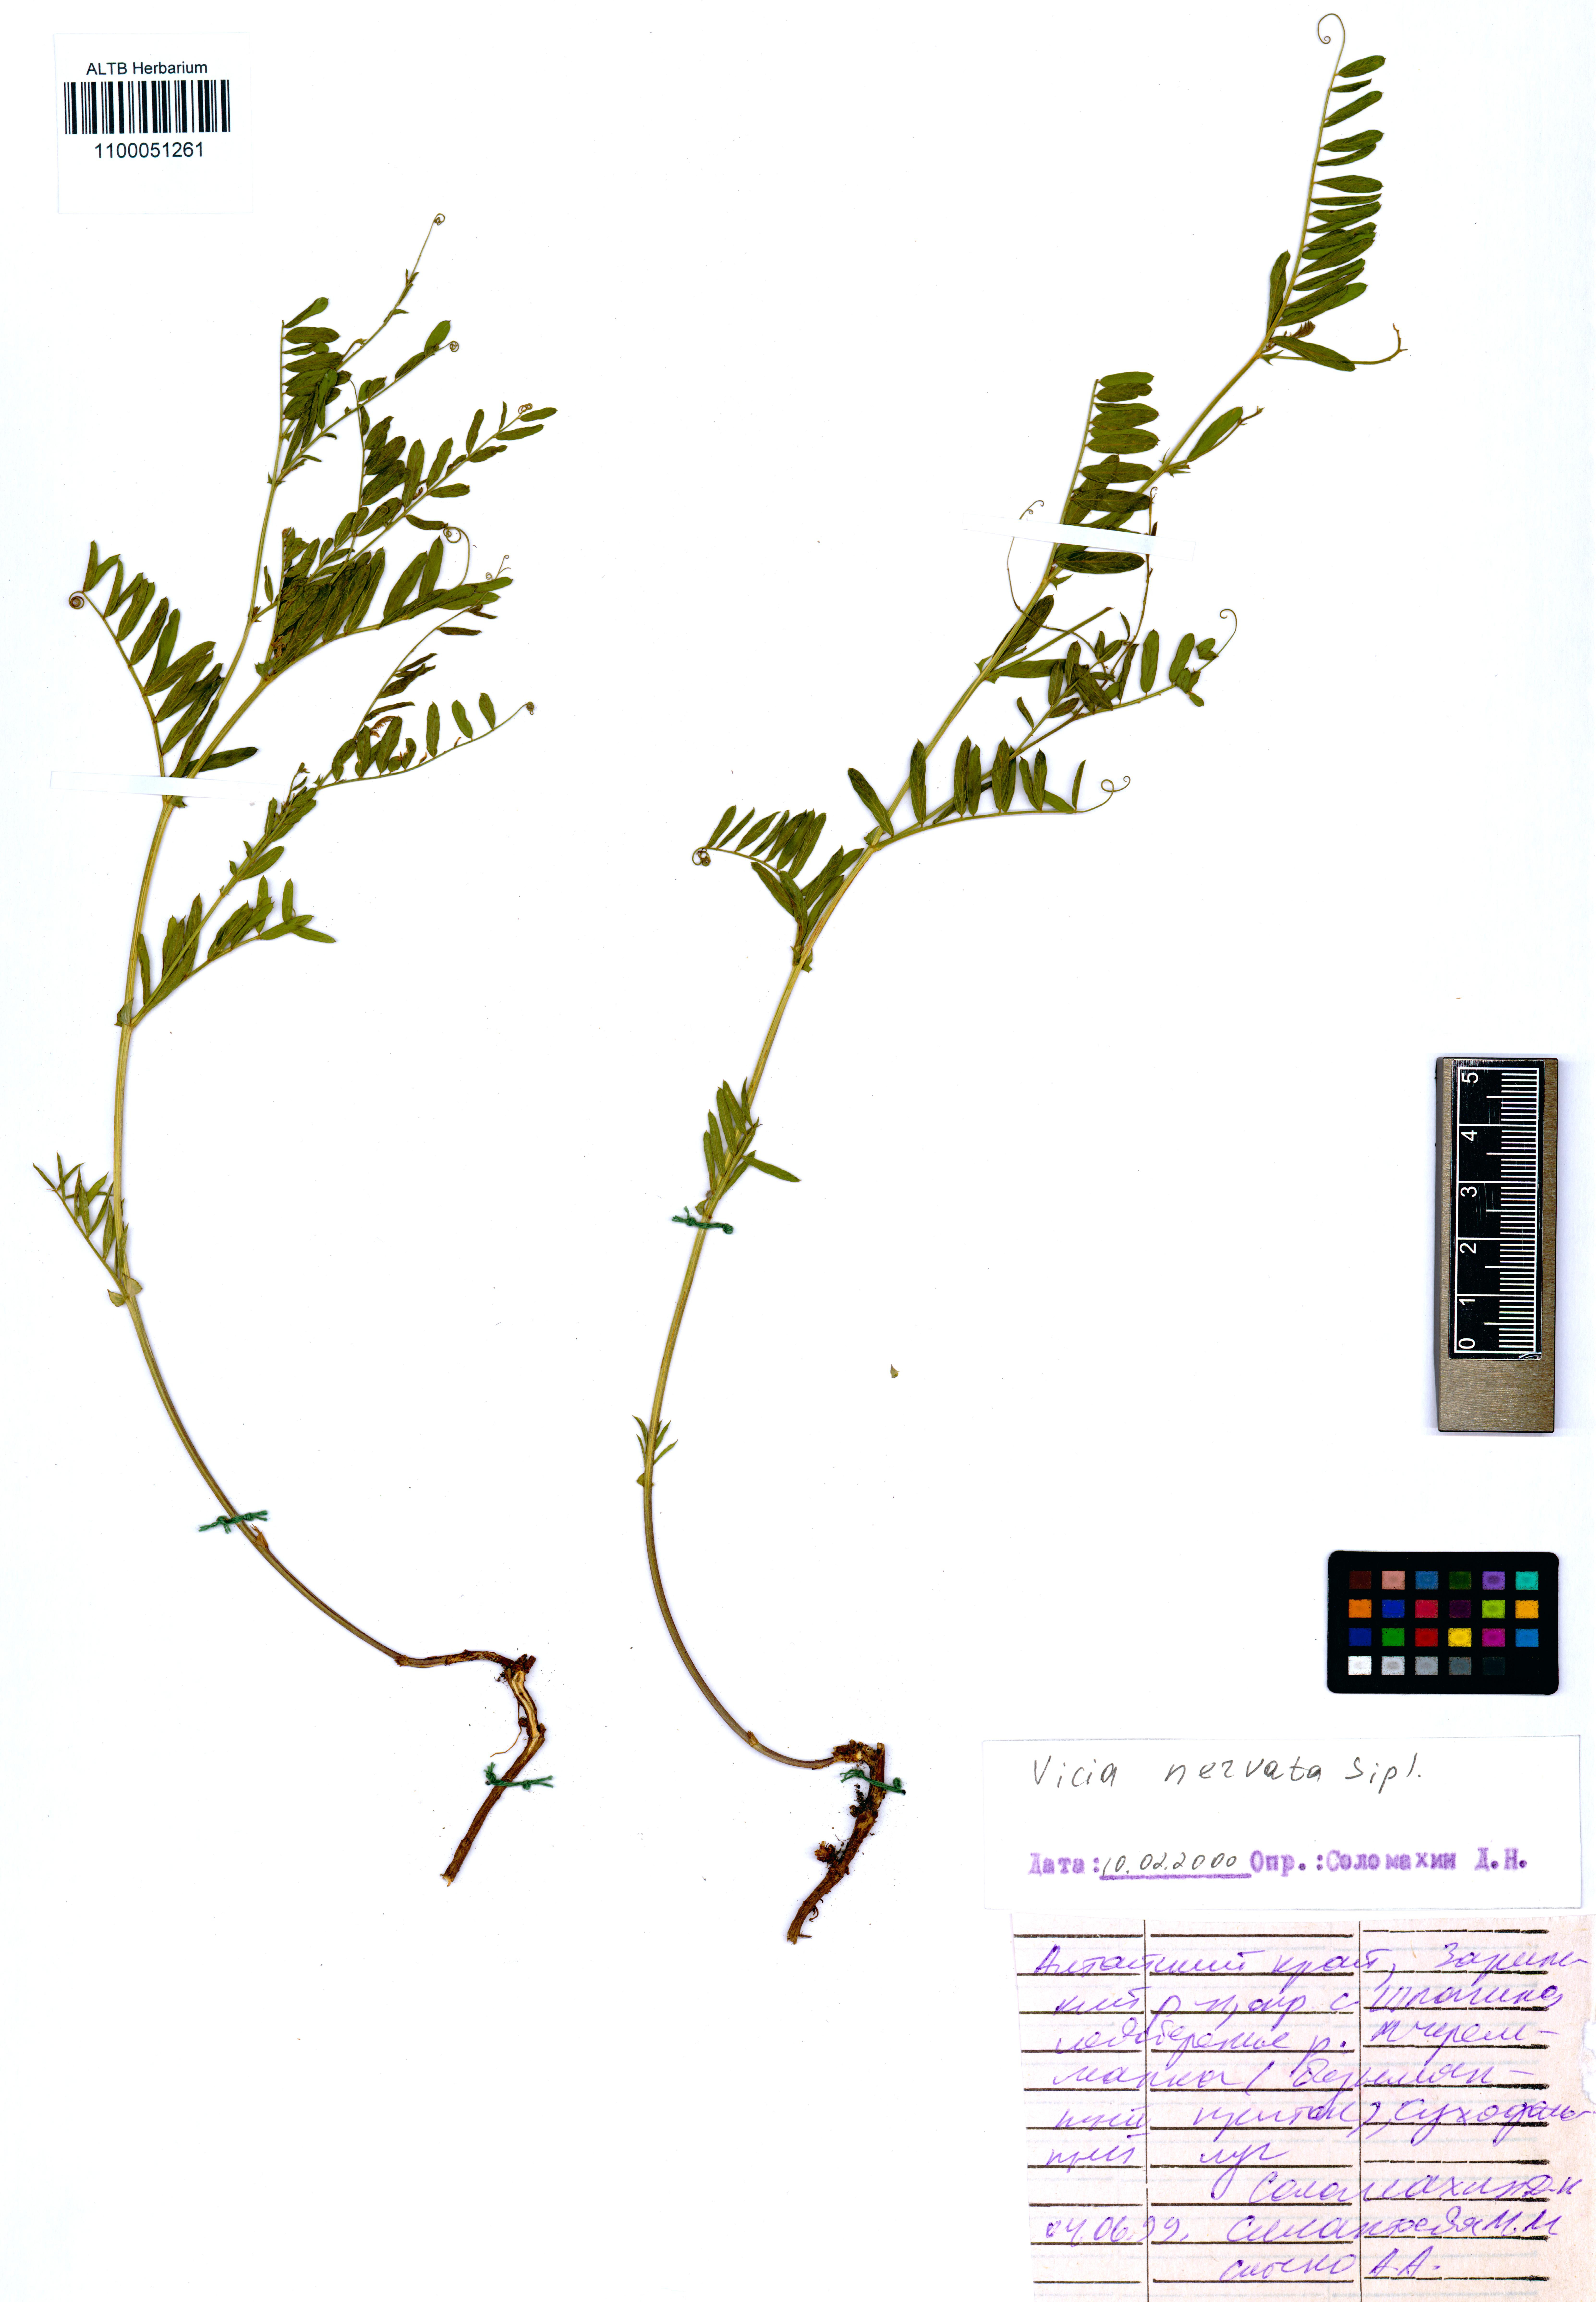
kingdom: Plantae
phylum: Tracheophyta
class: Magnoliopsida
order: Fabales
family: Fabaceae
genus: Vicia
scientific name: Vicia multicaulis
